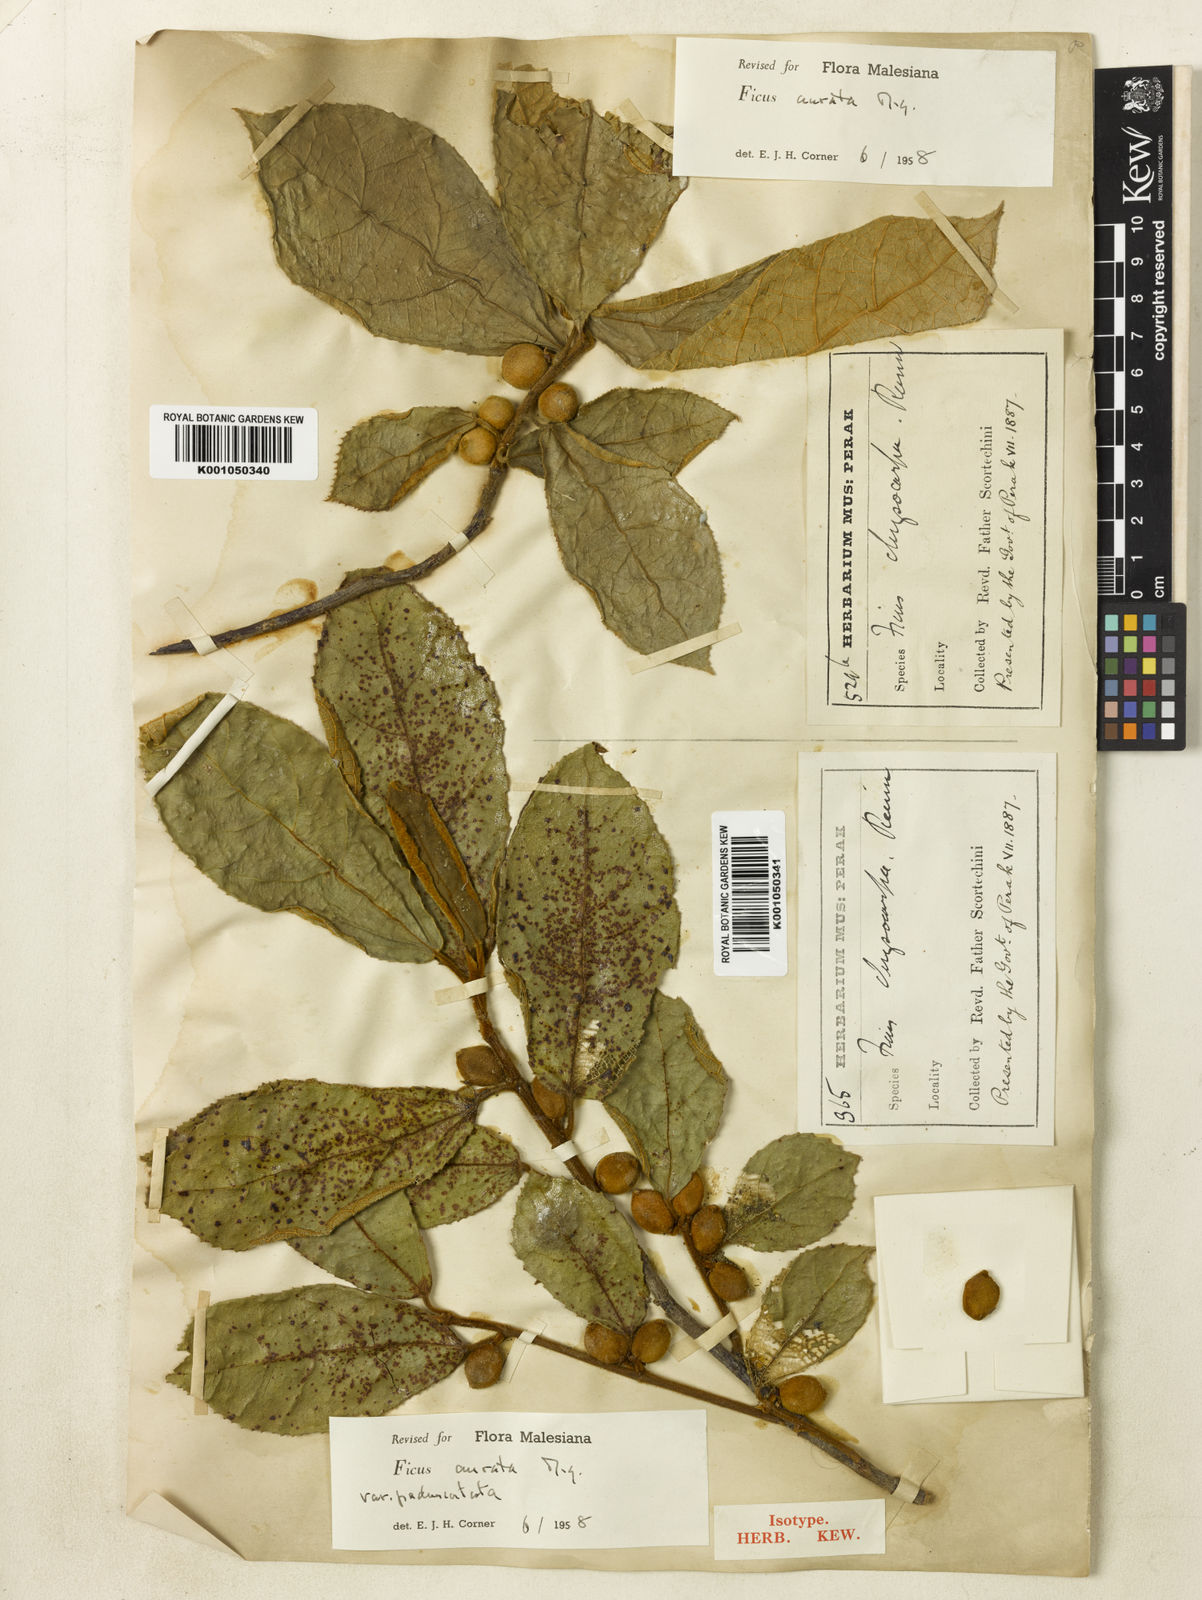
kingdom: Plantae
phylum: Tracheophyta
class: Magnoliopsida
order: Rosales
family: Moraceae
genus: Ficus
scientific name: Ficus aurata
